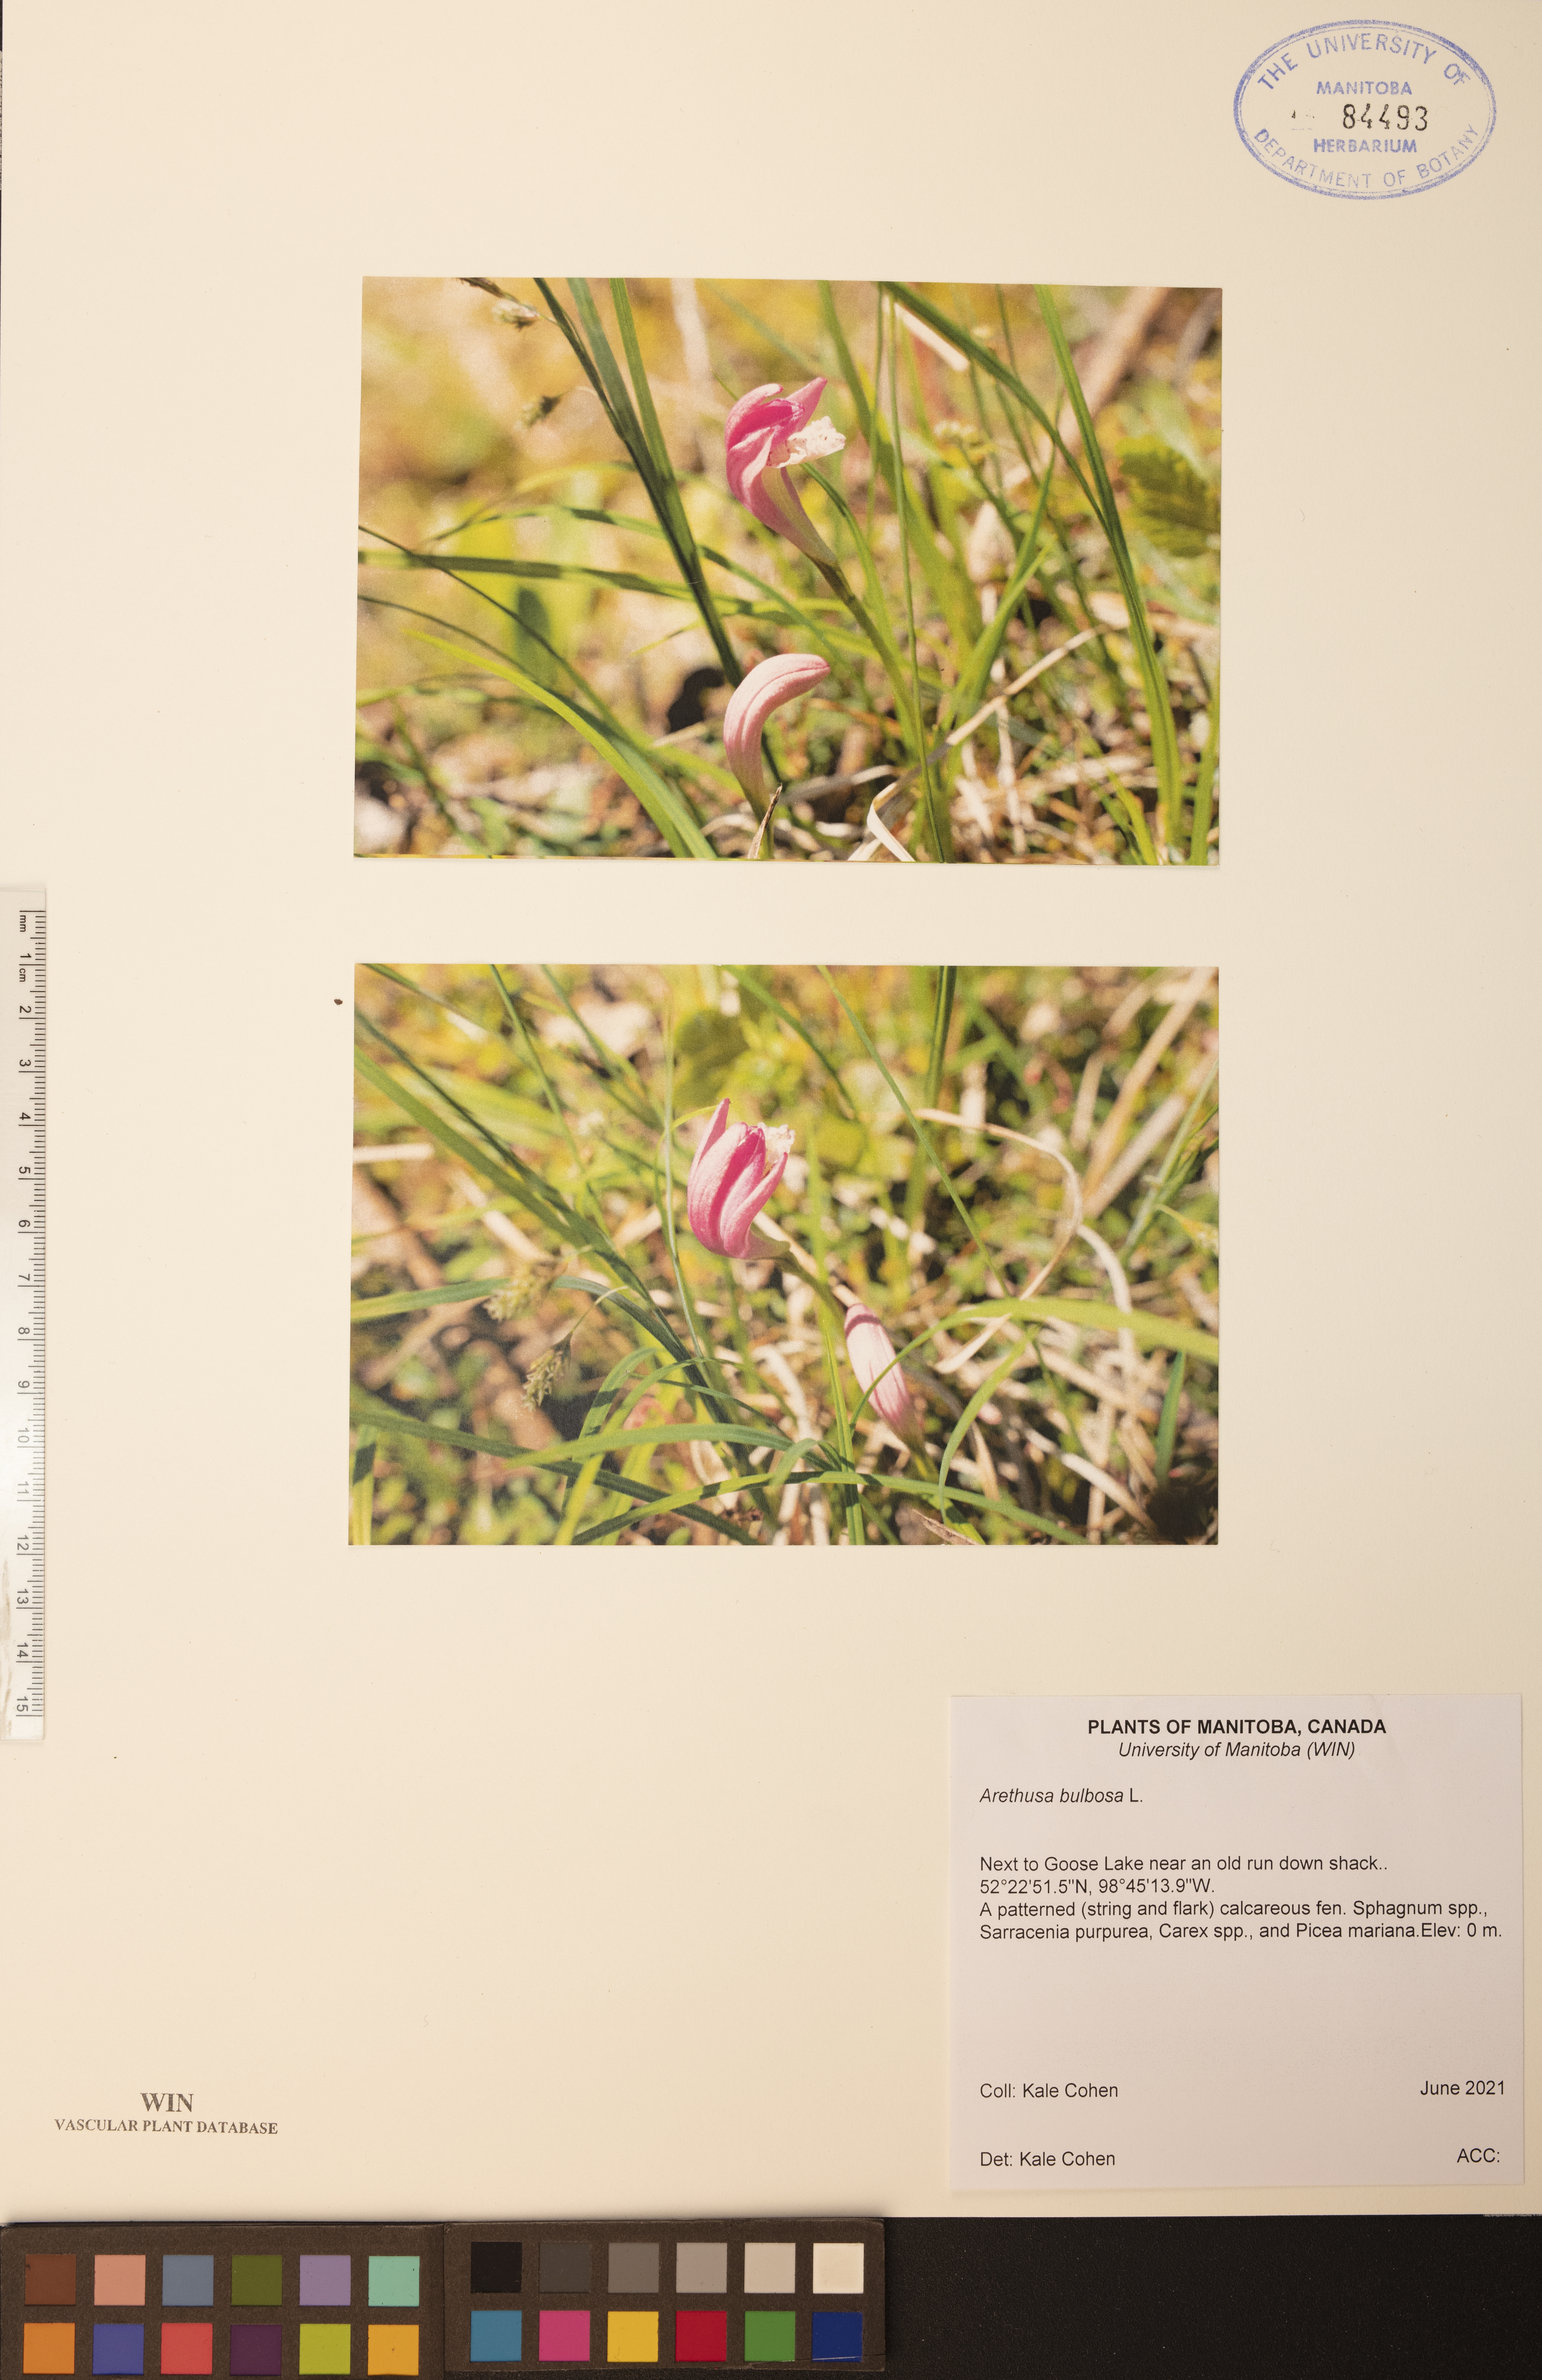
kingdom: Plantae
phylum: Tracheophyta
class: Liliopsida
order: Asparagales
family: Orchidaceae
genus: Arethusa
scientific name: Arethusa bulbosa
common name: Arethusa
